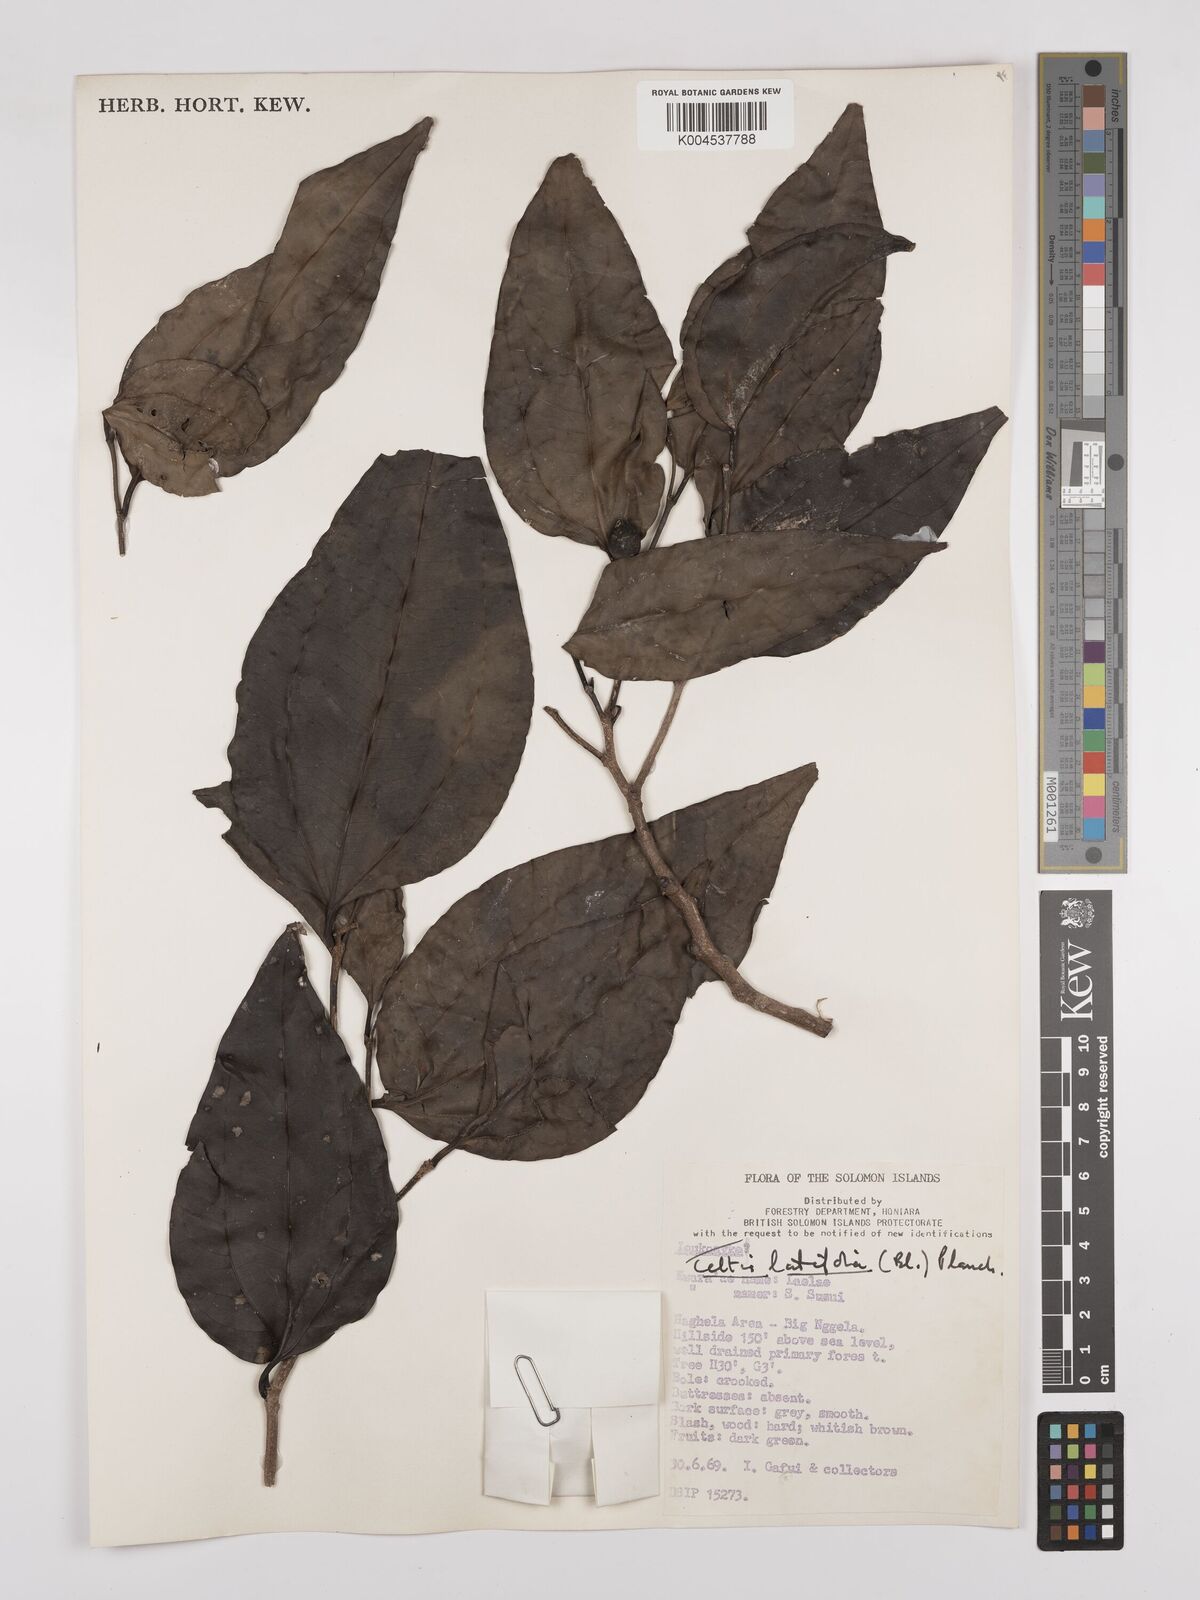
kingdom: Plantae
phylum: Tracheophyta
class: Magnoliopsida
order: Rosales
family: Cannabaceae
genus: Celtis
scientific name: Celtis latifolia
